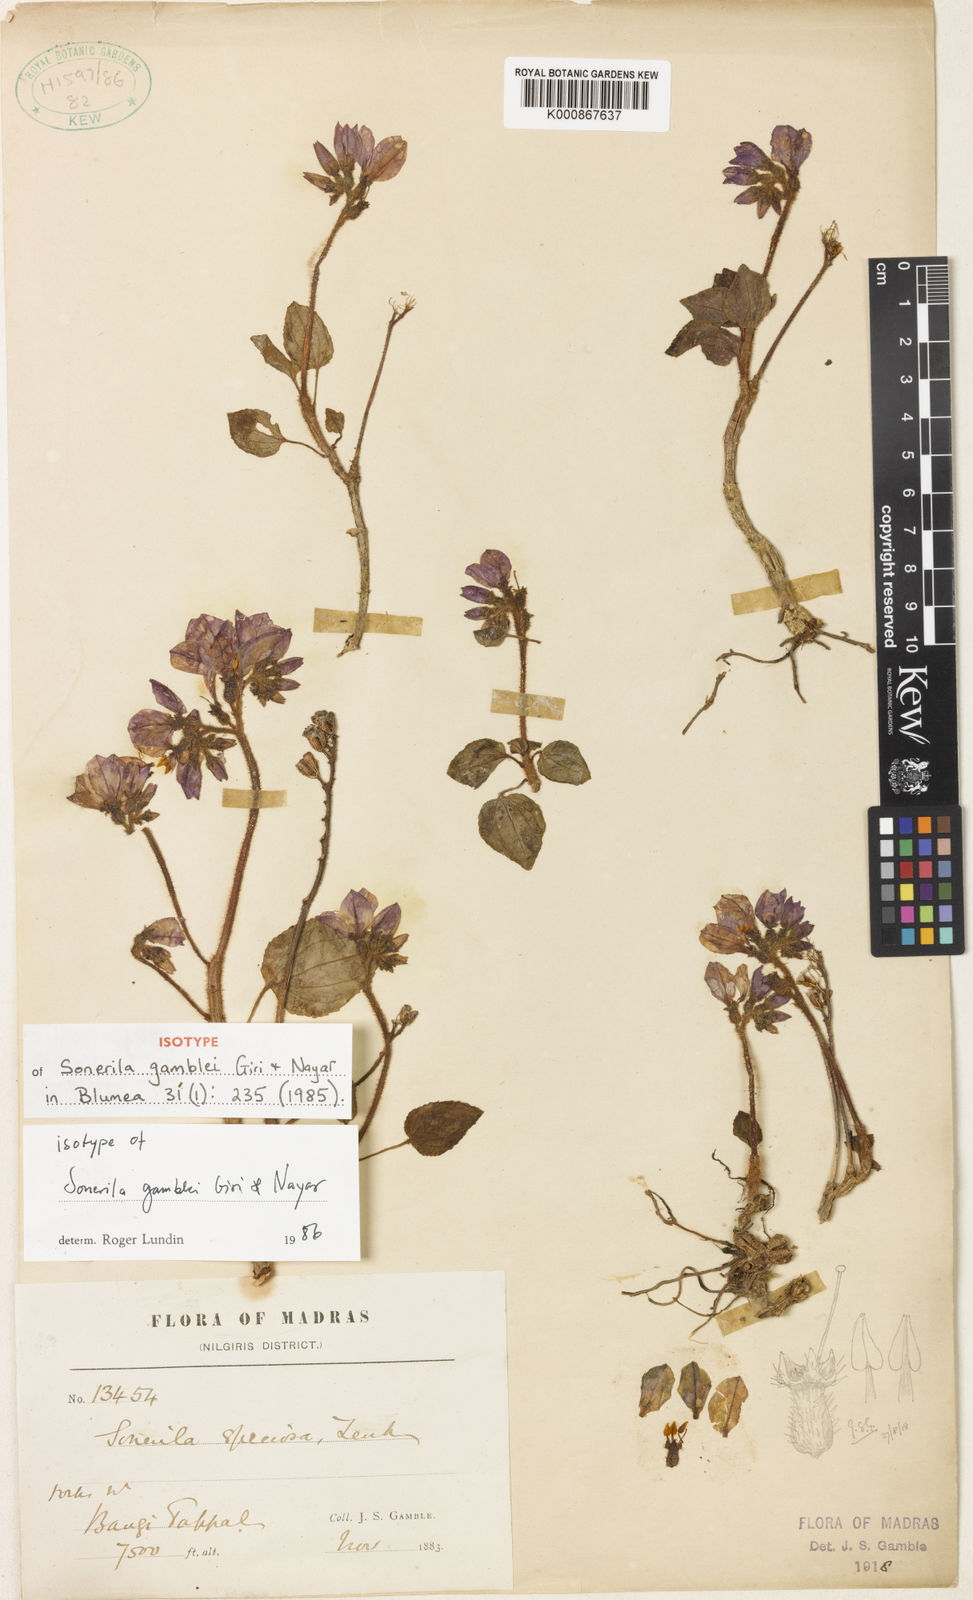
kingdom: Plantae
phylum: Tracheophyta
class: Magnoliopsida
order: Myrtales
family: Melastomataceae
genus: Sonerila
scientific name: Sonerila gamblei
